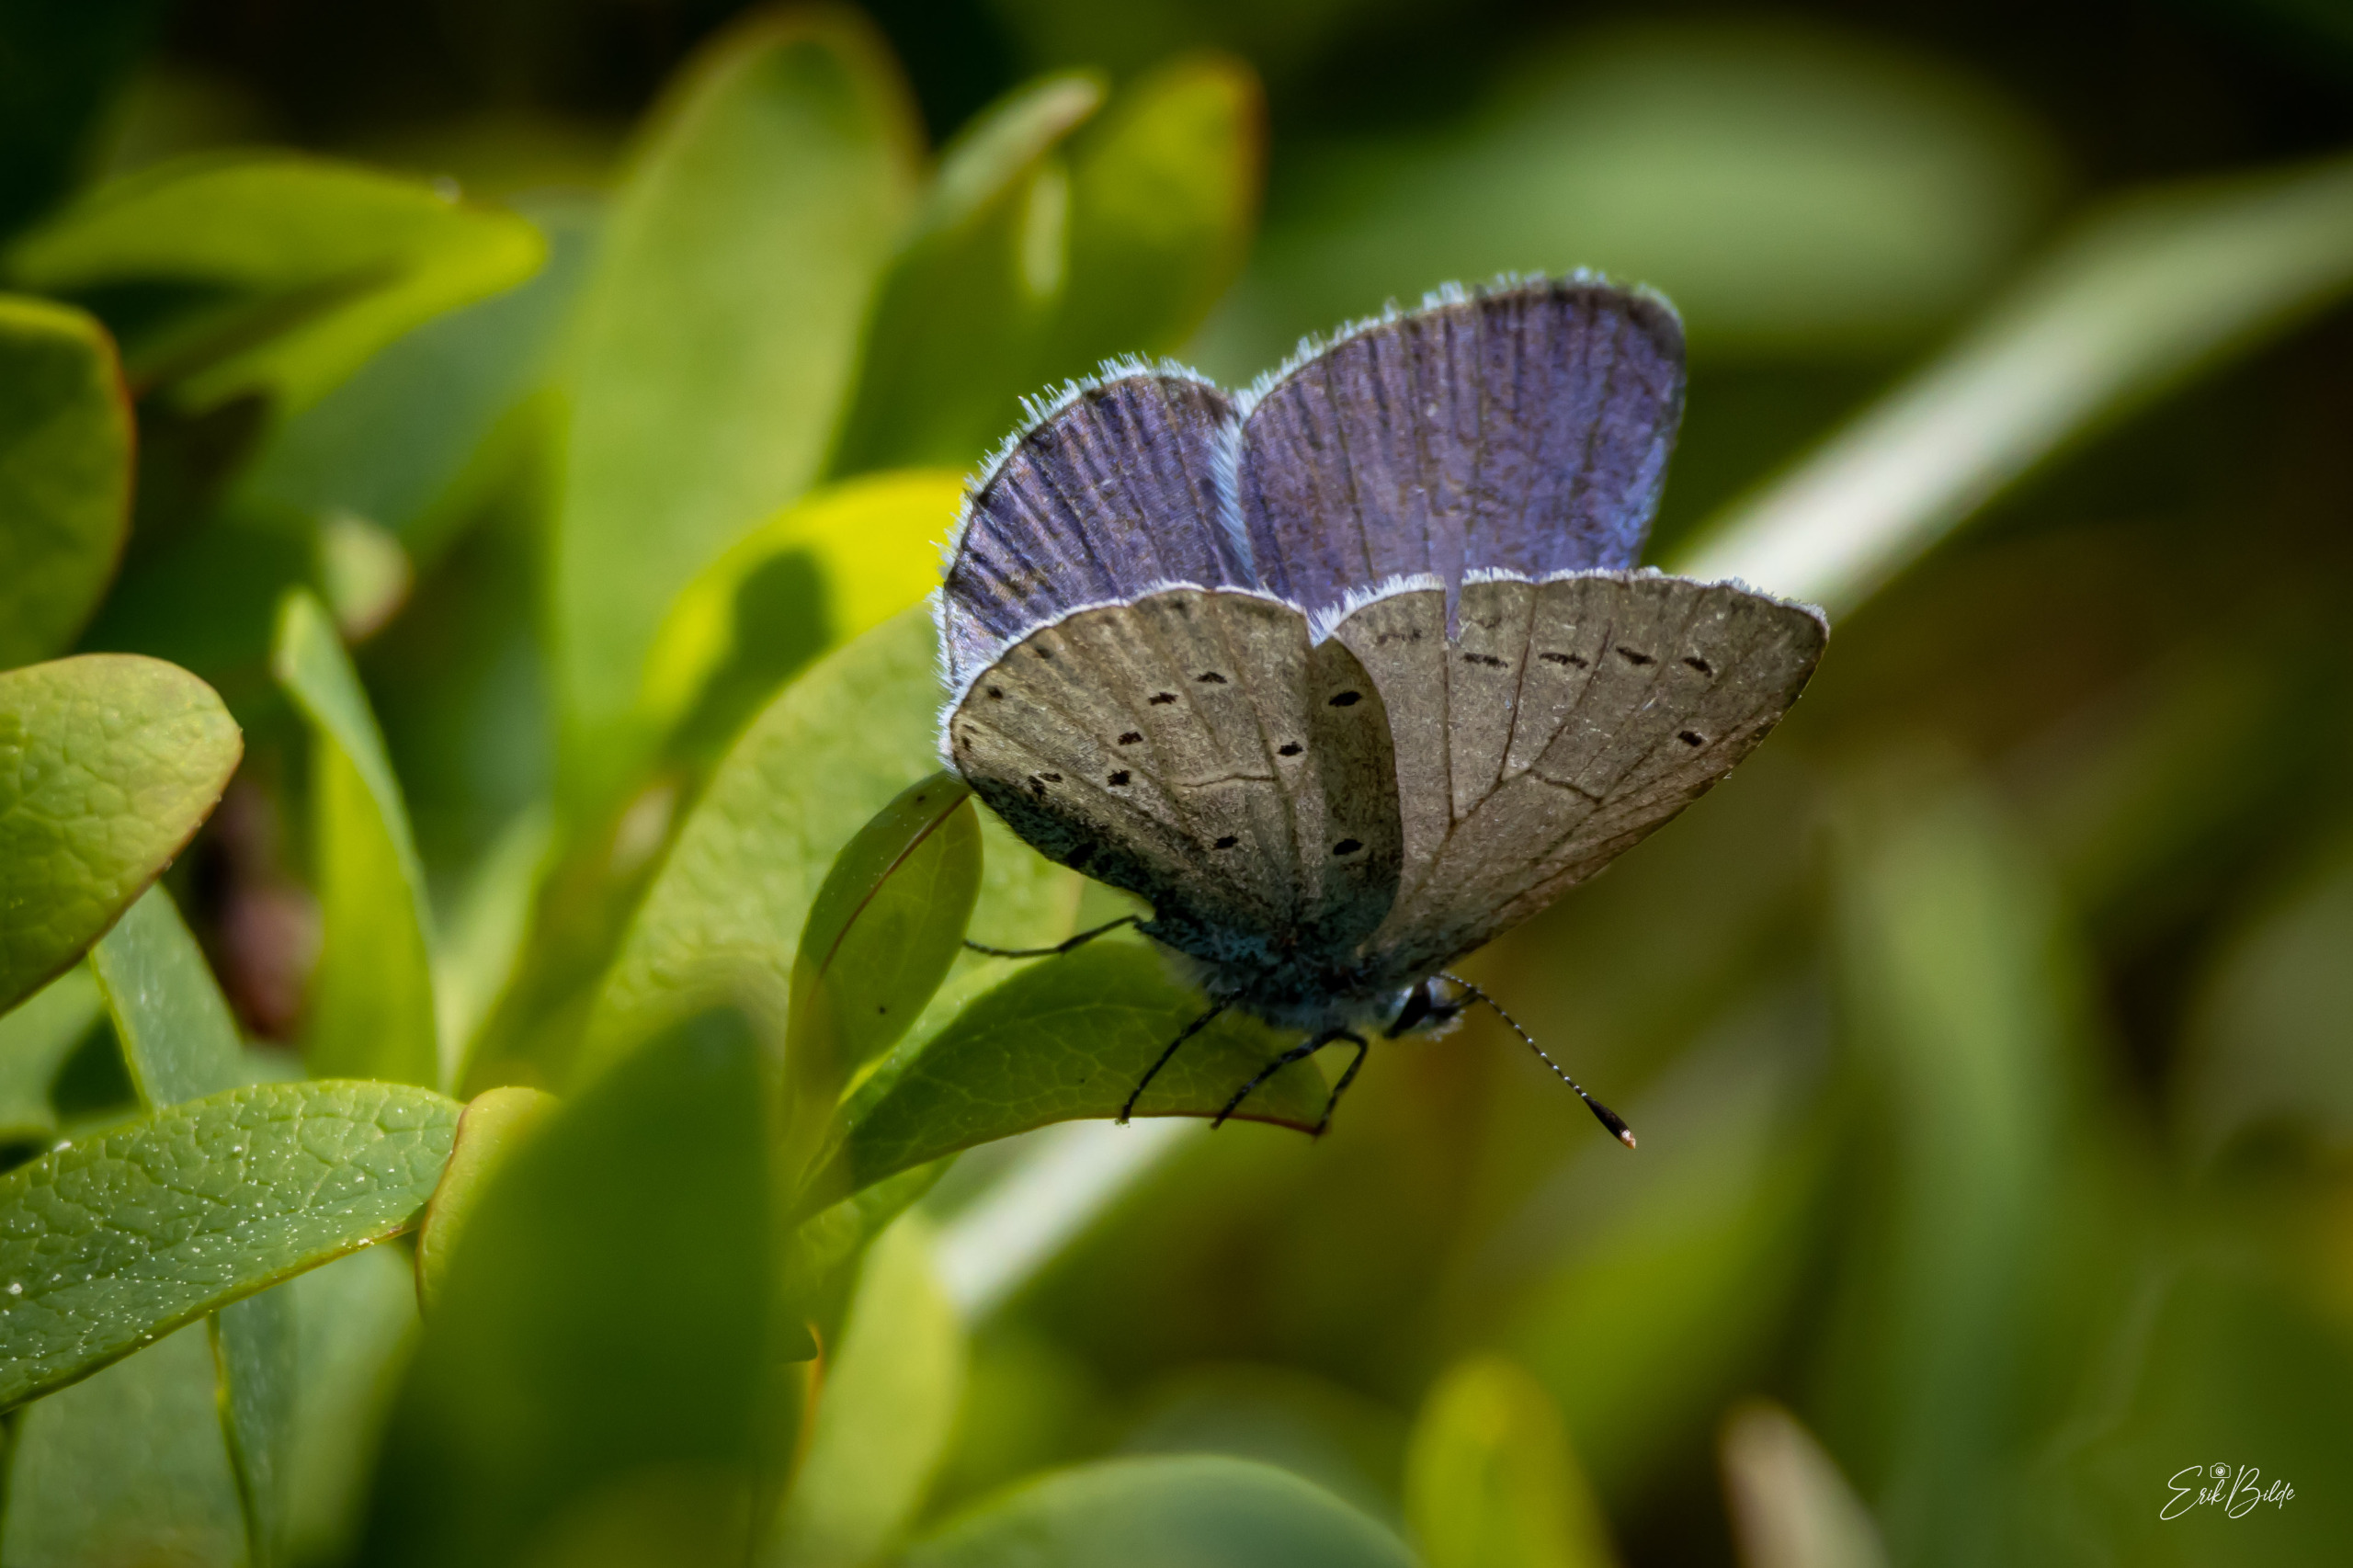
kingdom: Animalia
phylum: Arthropoda
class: Insecta
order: Lepidoptera
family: Lycaenidae
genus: Celastrina
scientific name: Celastrina argiolus
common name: Skovblåfugl
